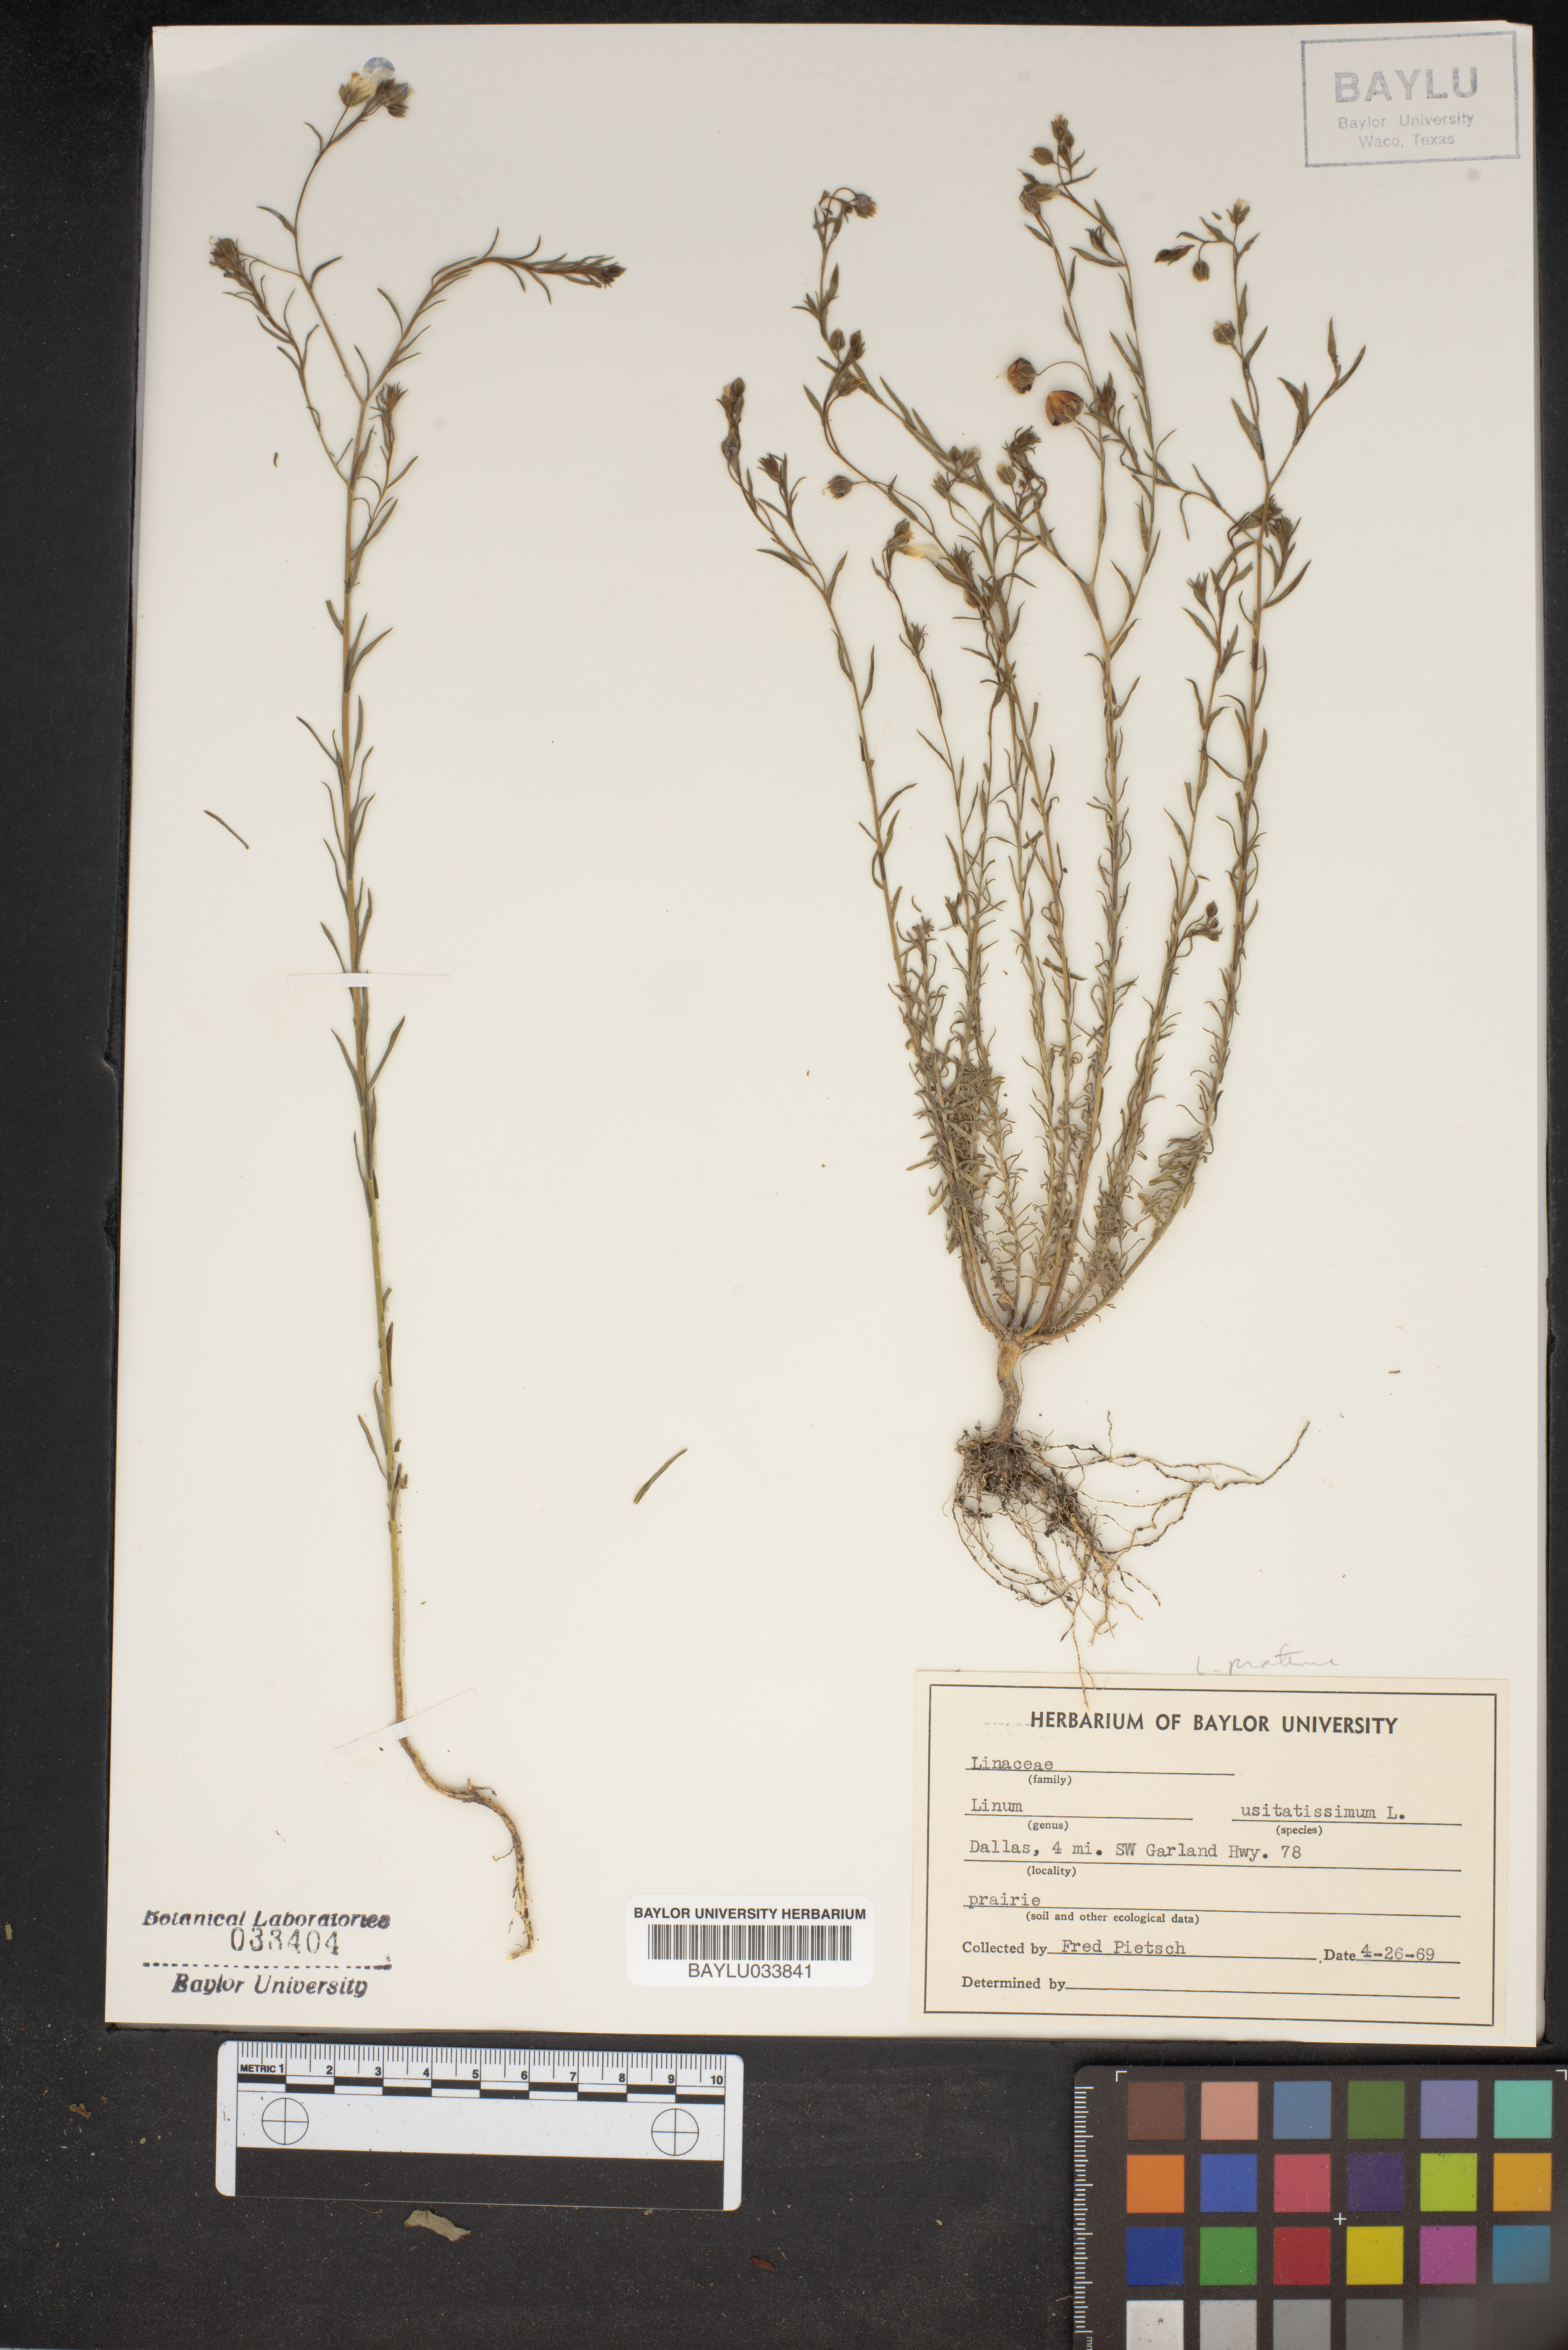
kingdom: Plantae
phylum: Tracheophyta
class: Magnoliopsida
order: Malpighiales
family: Linaceae
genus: Linum
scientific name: Linum usitatissimum
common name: Flax
